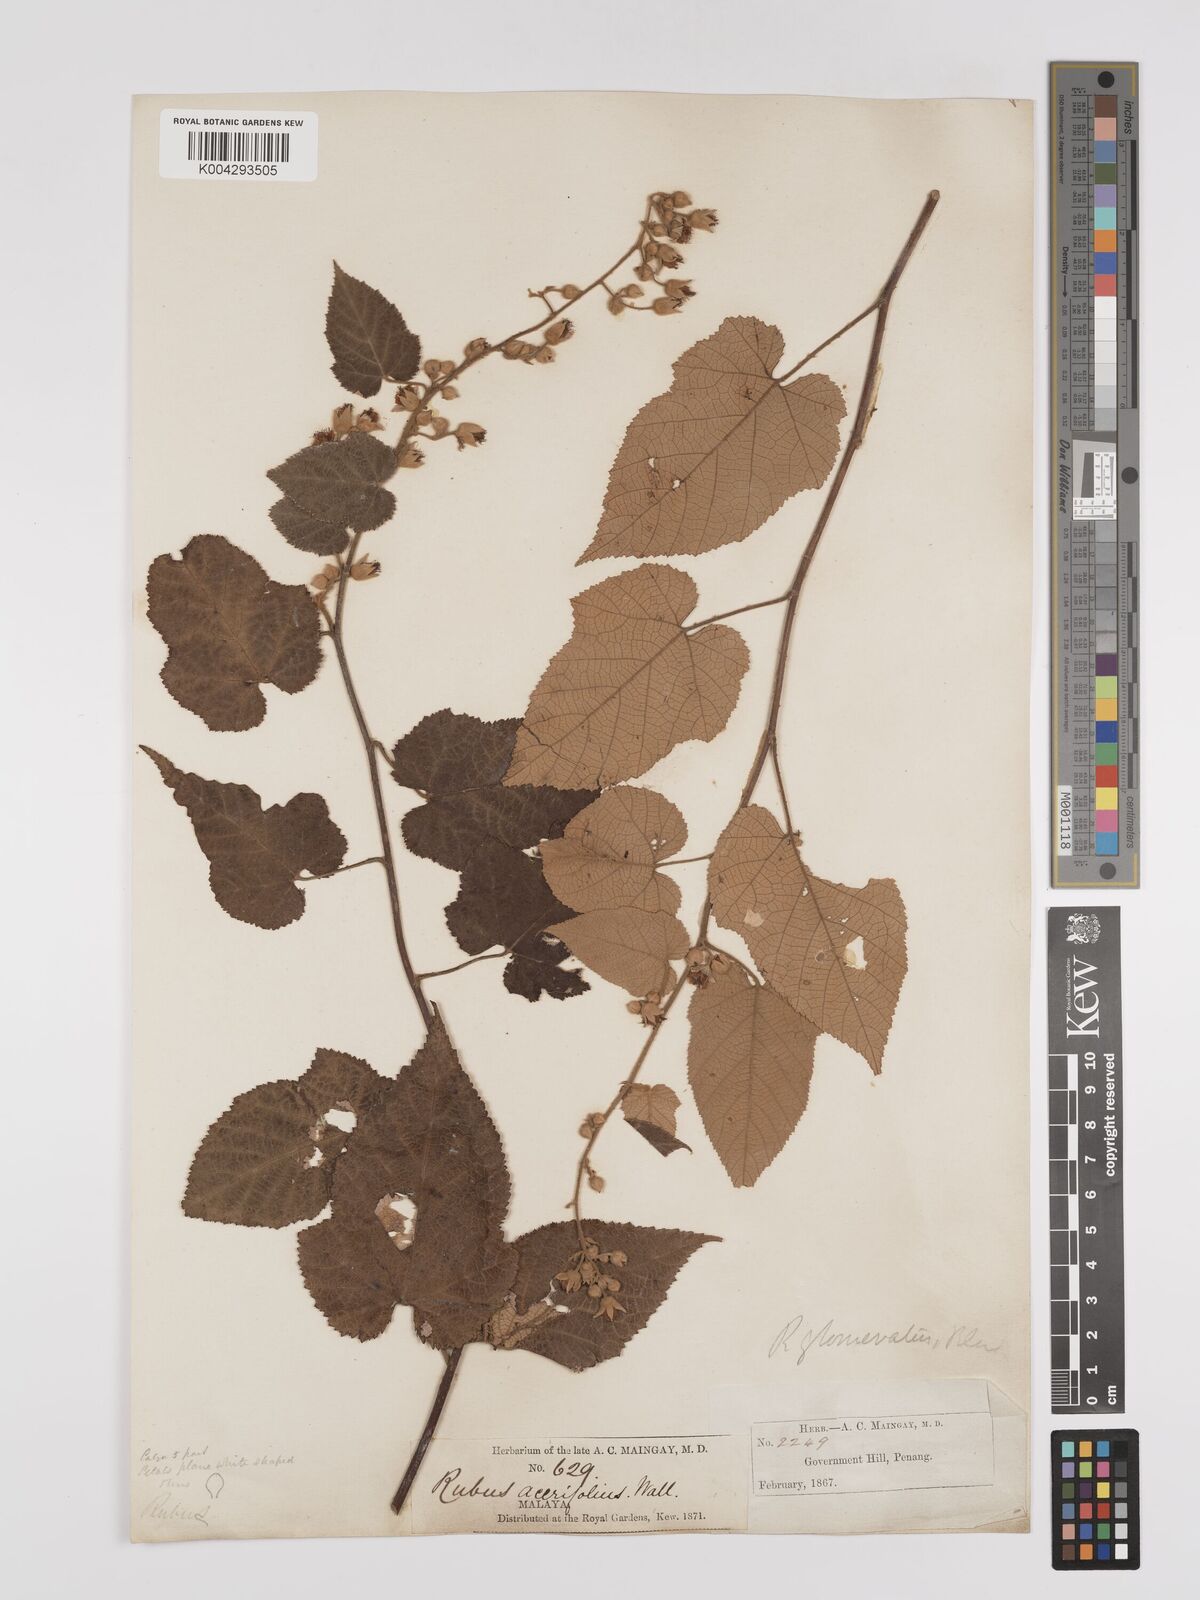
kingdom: Plantae
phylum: Tracheophyta
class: Magnoliopsida
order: Rosales
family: Rosaceae
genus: Rubus
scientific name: Rubus moluccanus
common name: Wild raspberry
